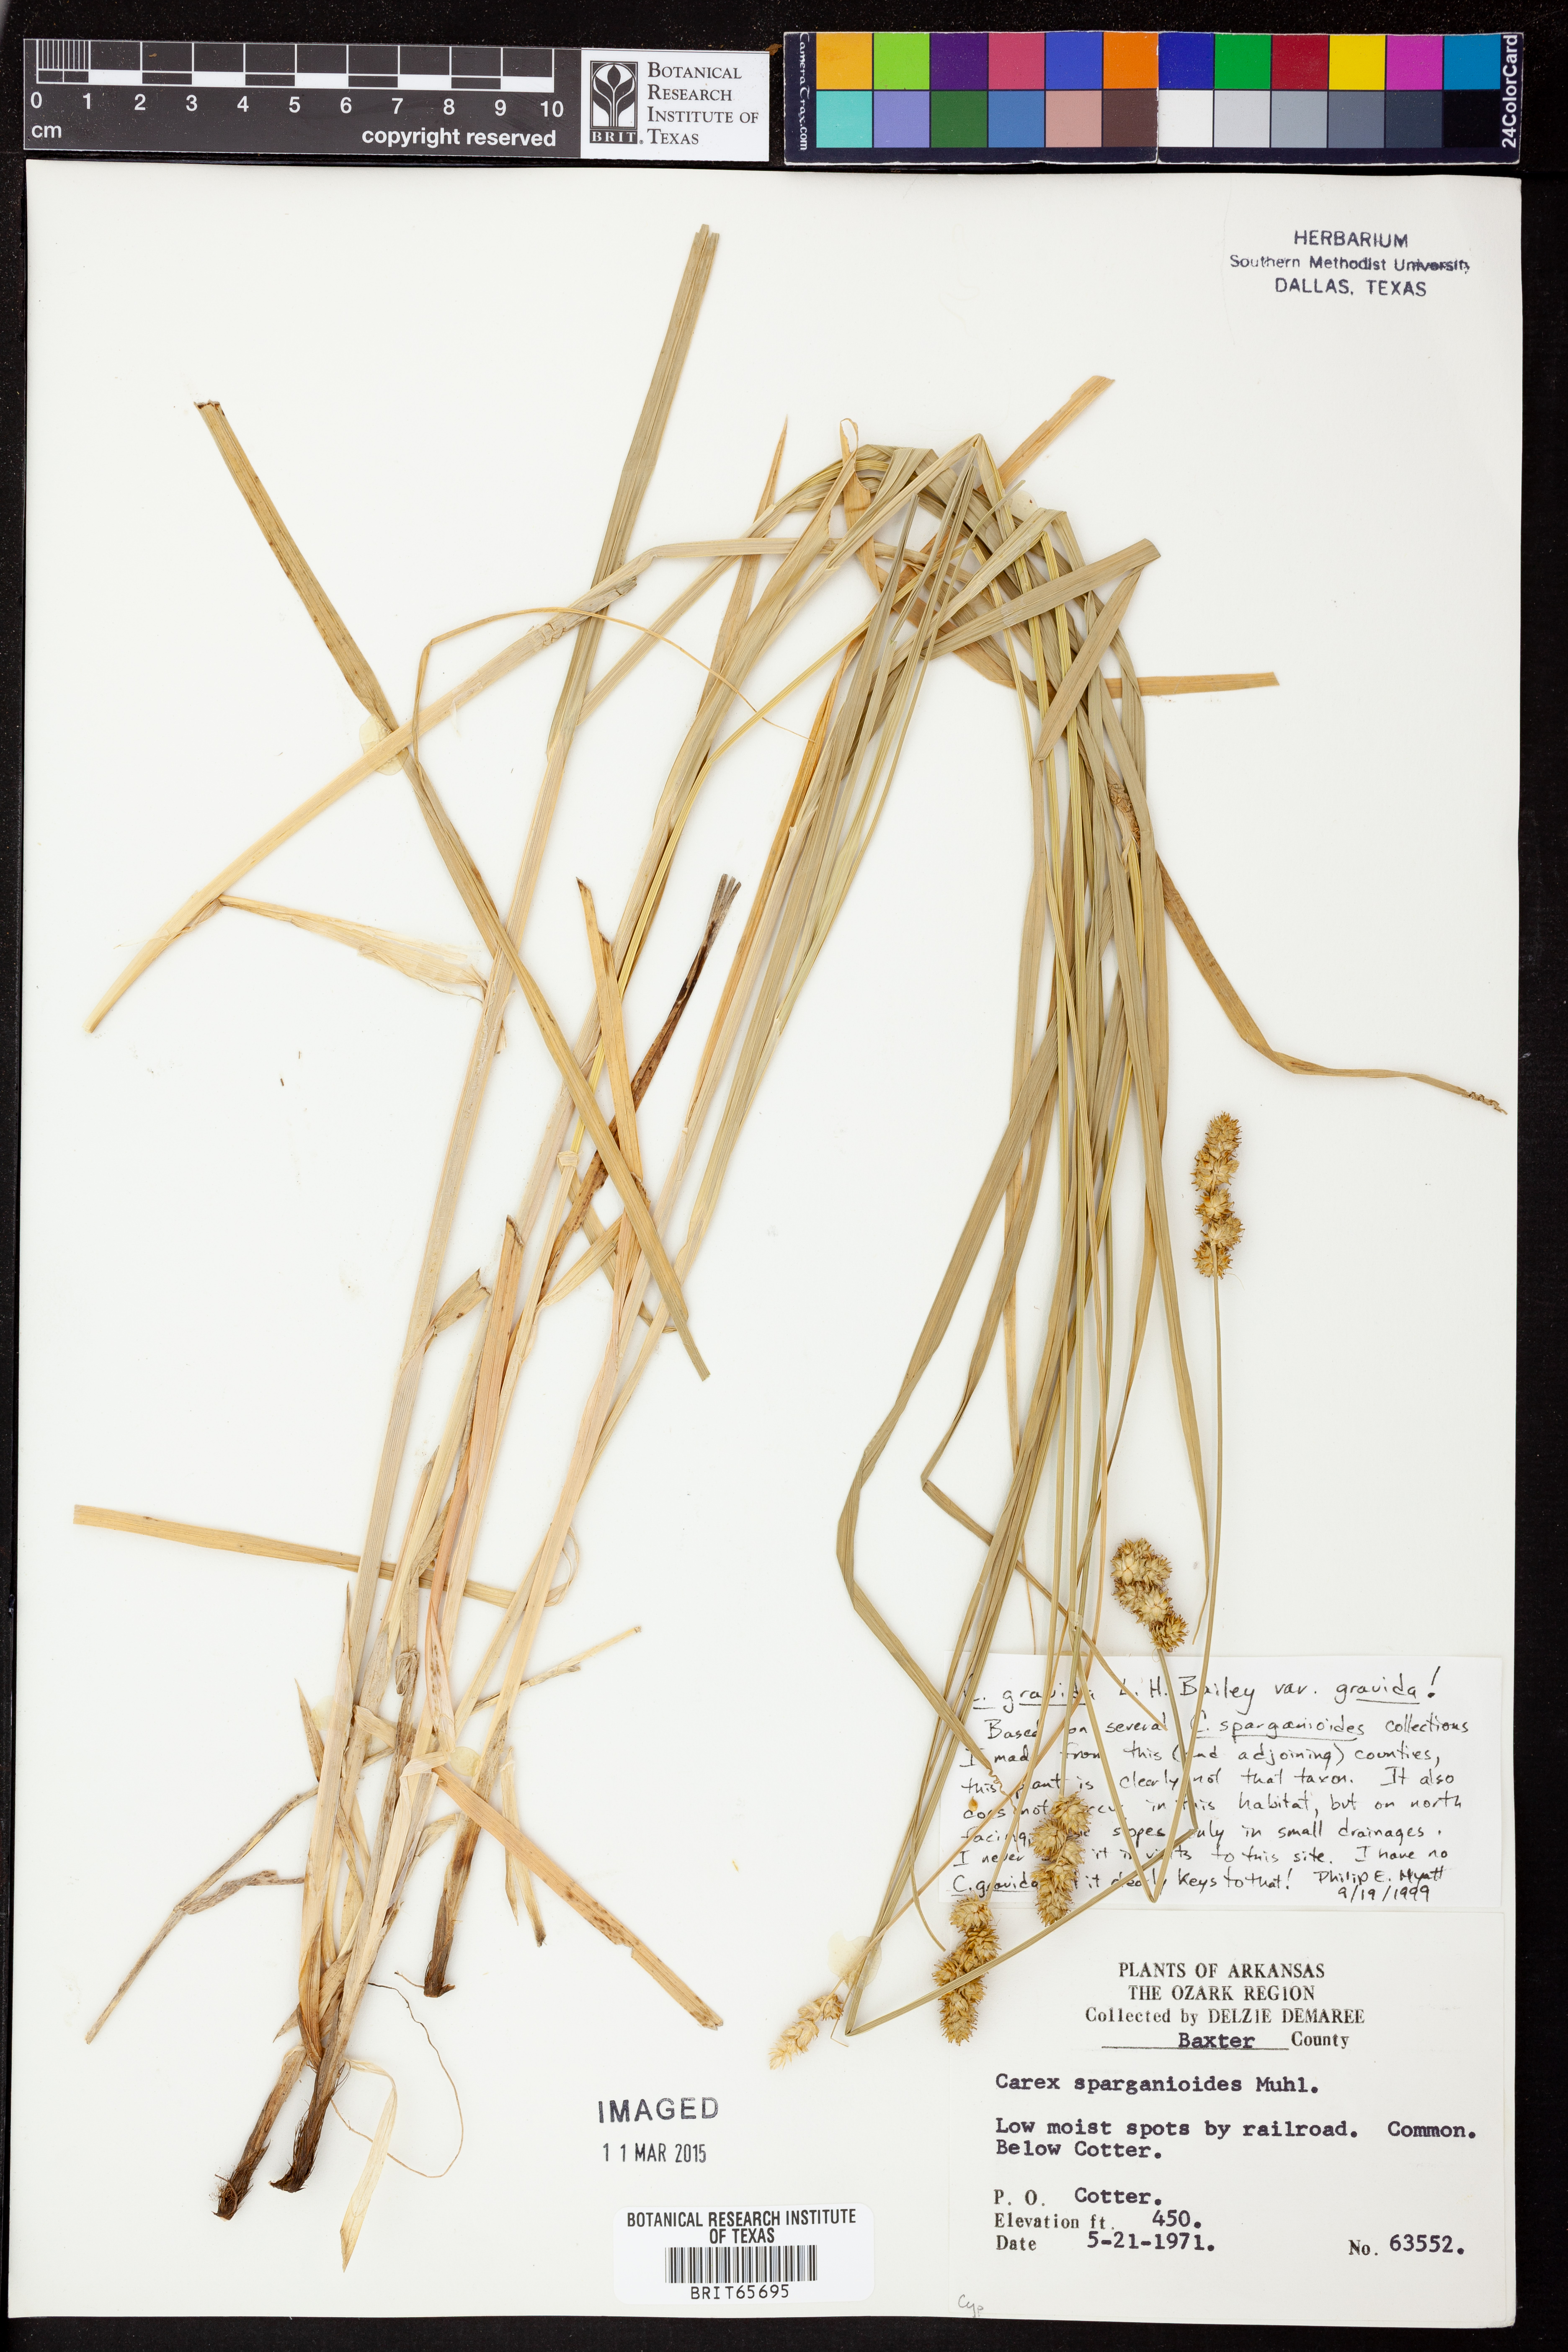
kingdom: Plantae
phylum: Tracheophyta
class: Liliopsida
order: Poales
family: Cyperaceae
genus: Carex
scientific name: Carex gravida
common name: Heavy sedge
